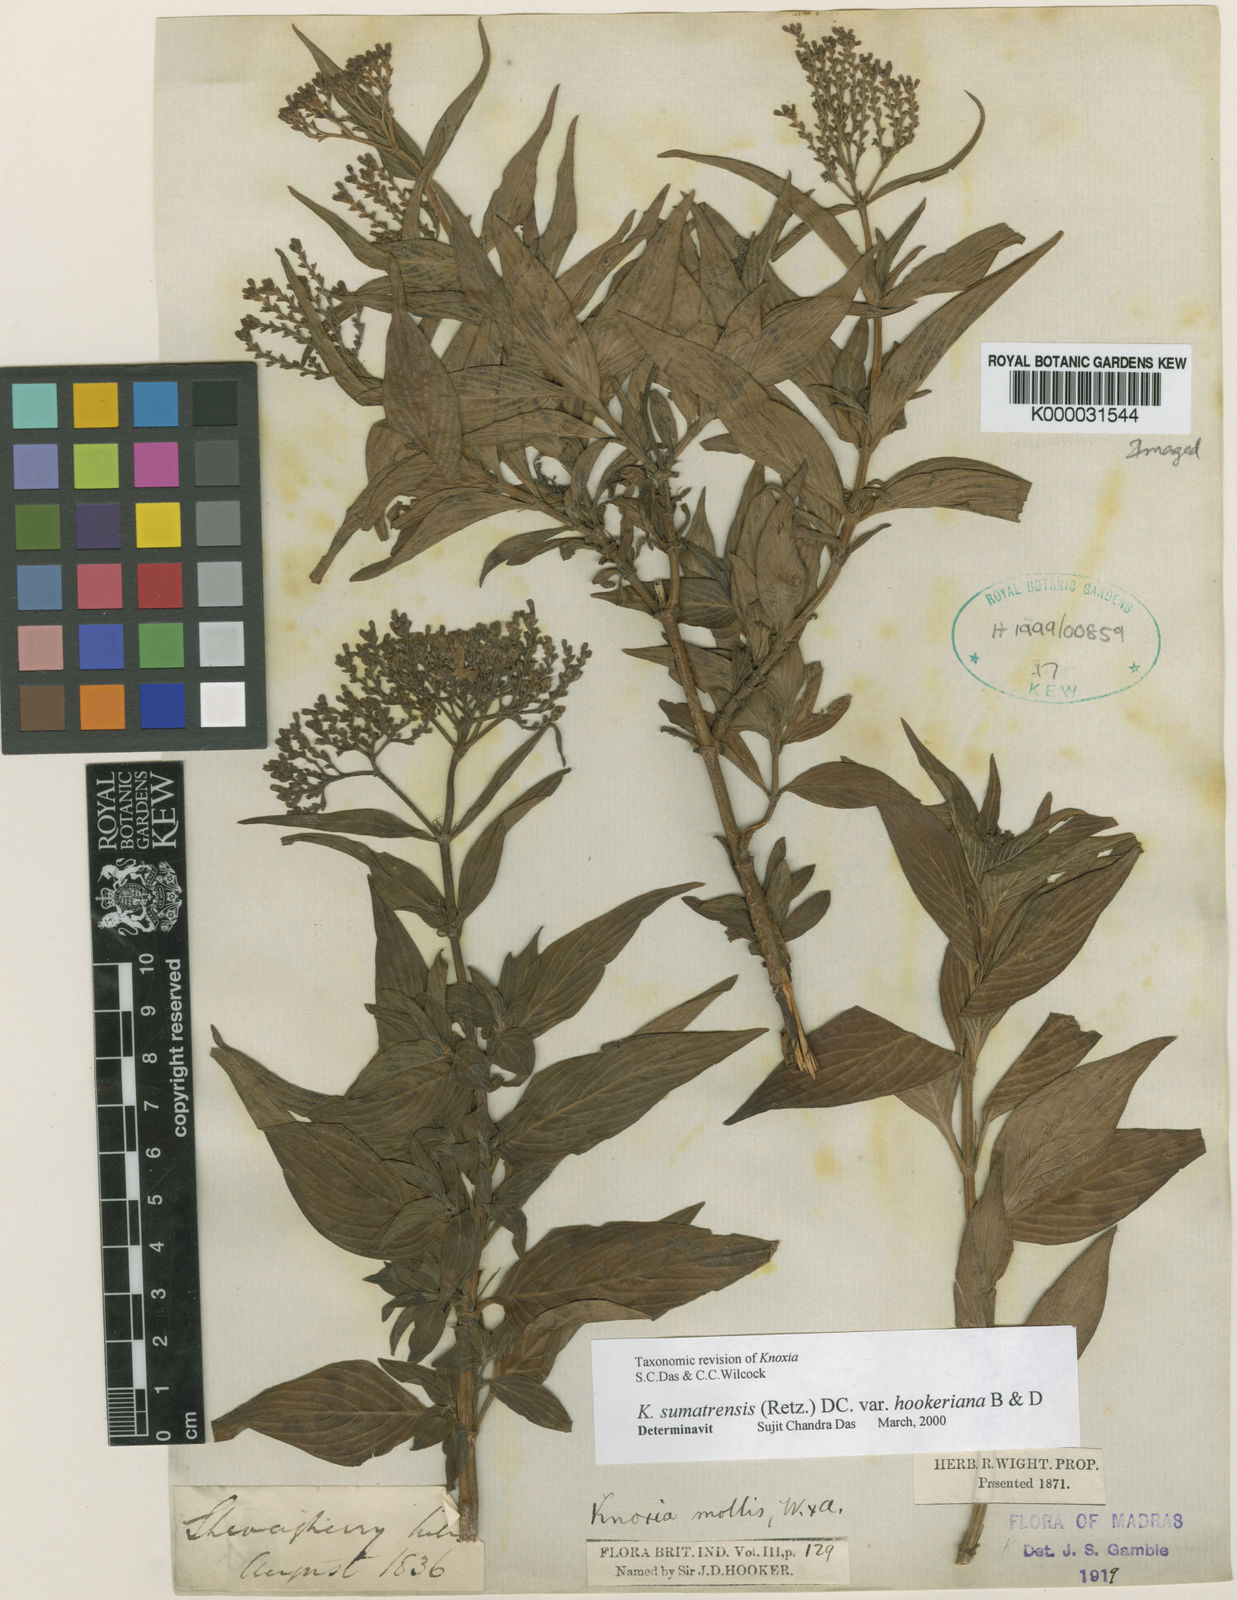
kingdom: Plantae
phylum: Tracheophyta
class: Magnoliopsida
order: Gentianales
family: Rubiaceae
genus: Knoxia
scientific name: Knoxia hookeri
